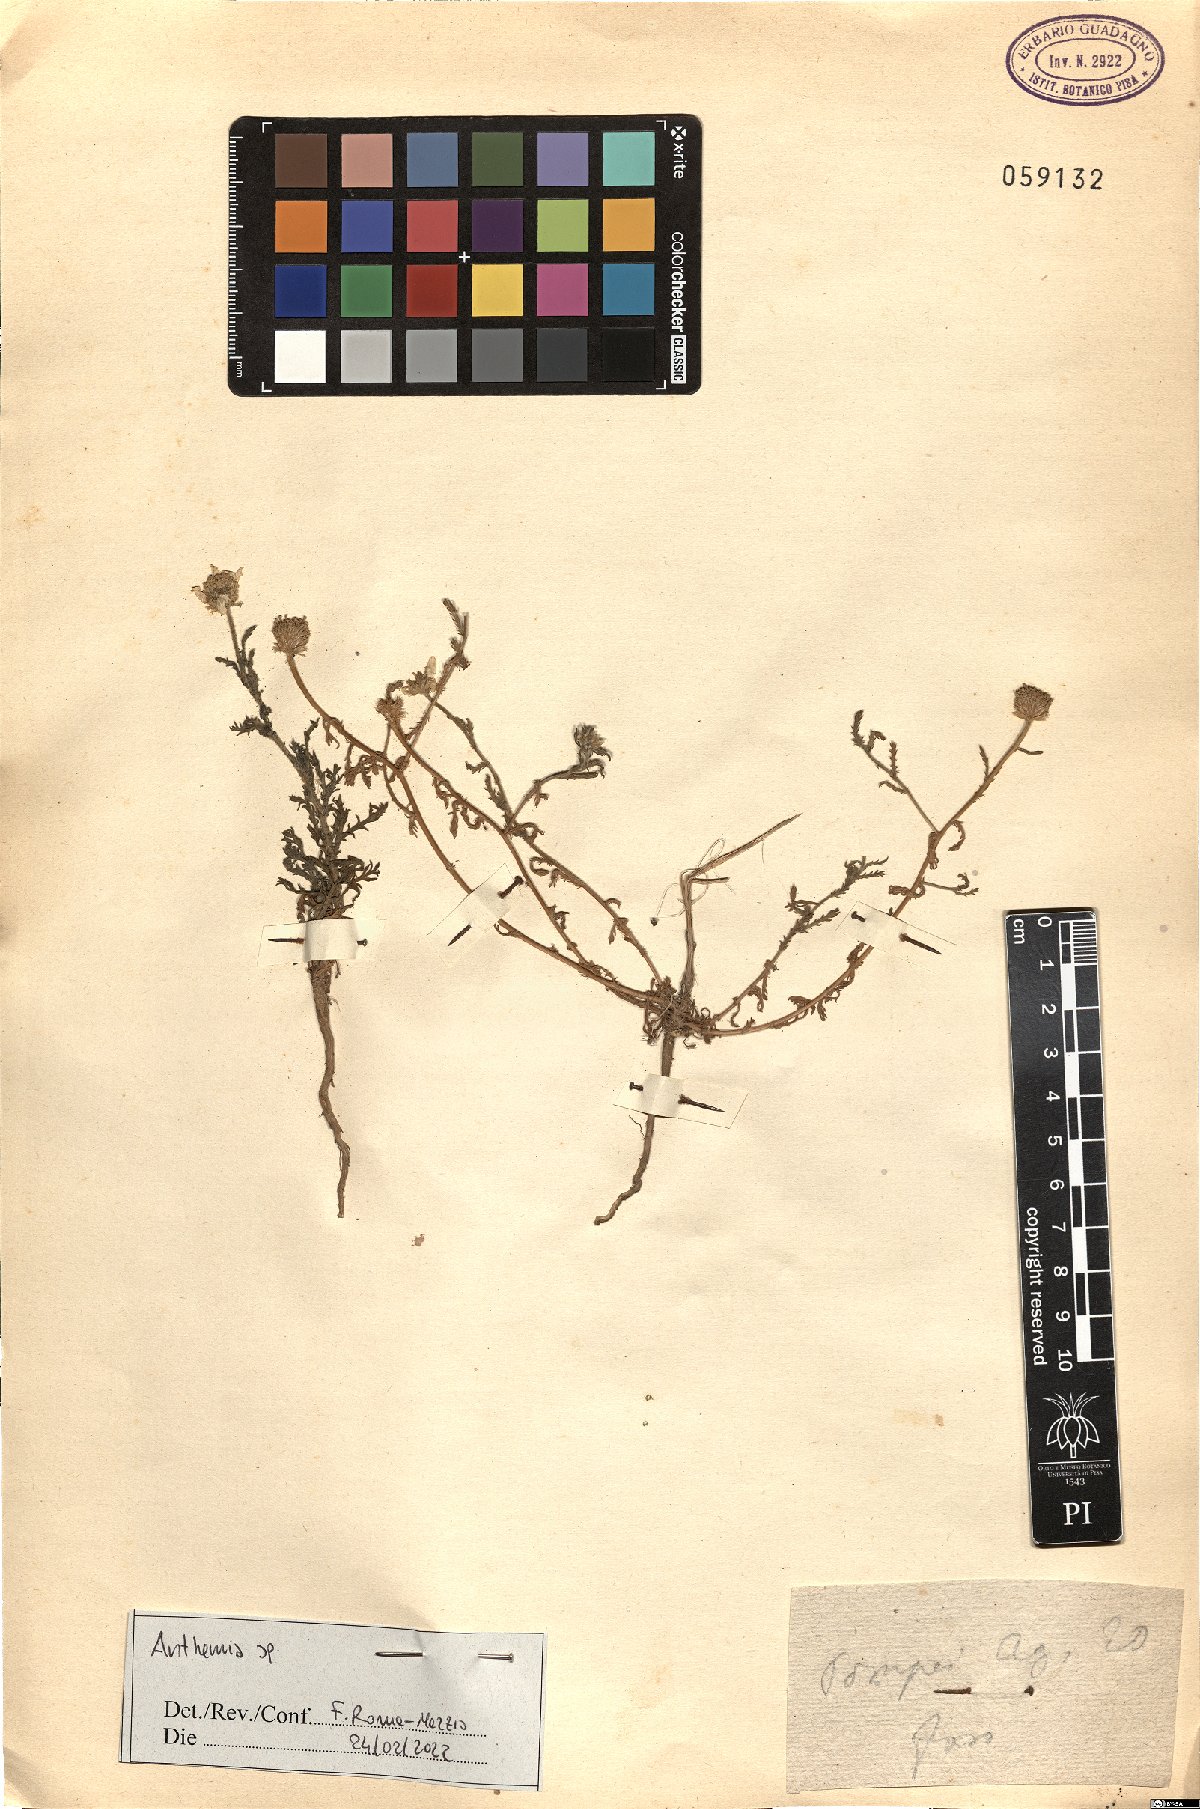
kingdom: Plantae
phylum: Tracheophyta
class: Magnoliopsida
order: Asterales
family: Asteraceae
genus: Anthemis
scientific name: Anthemis
